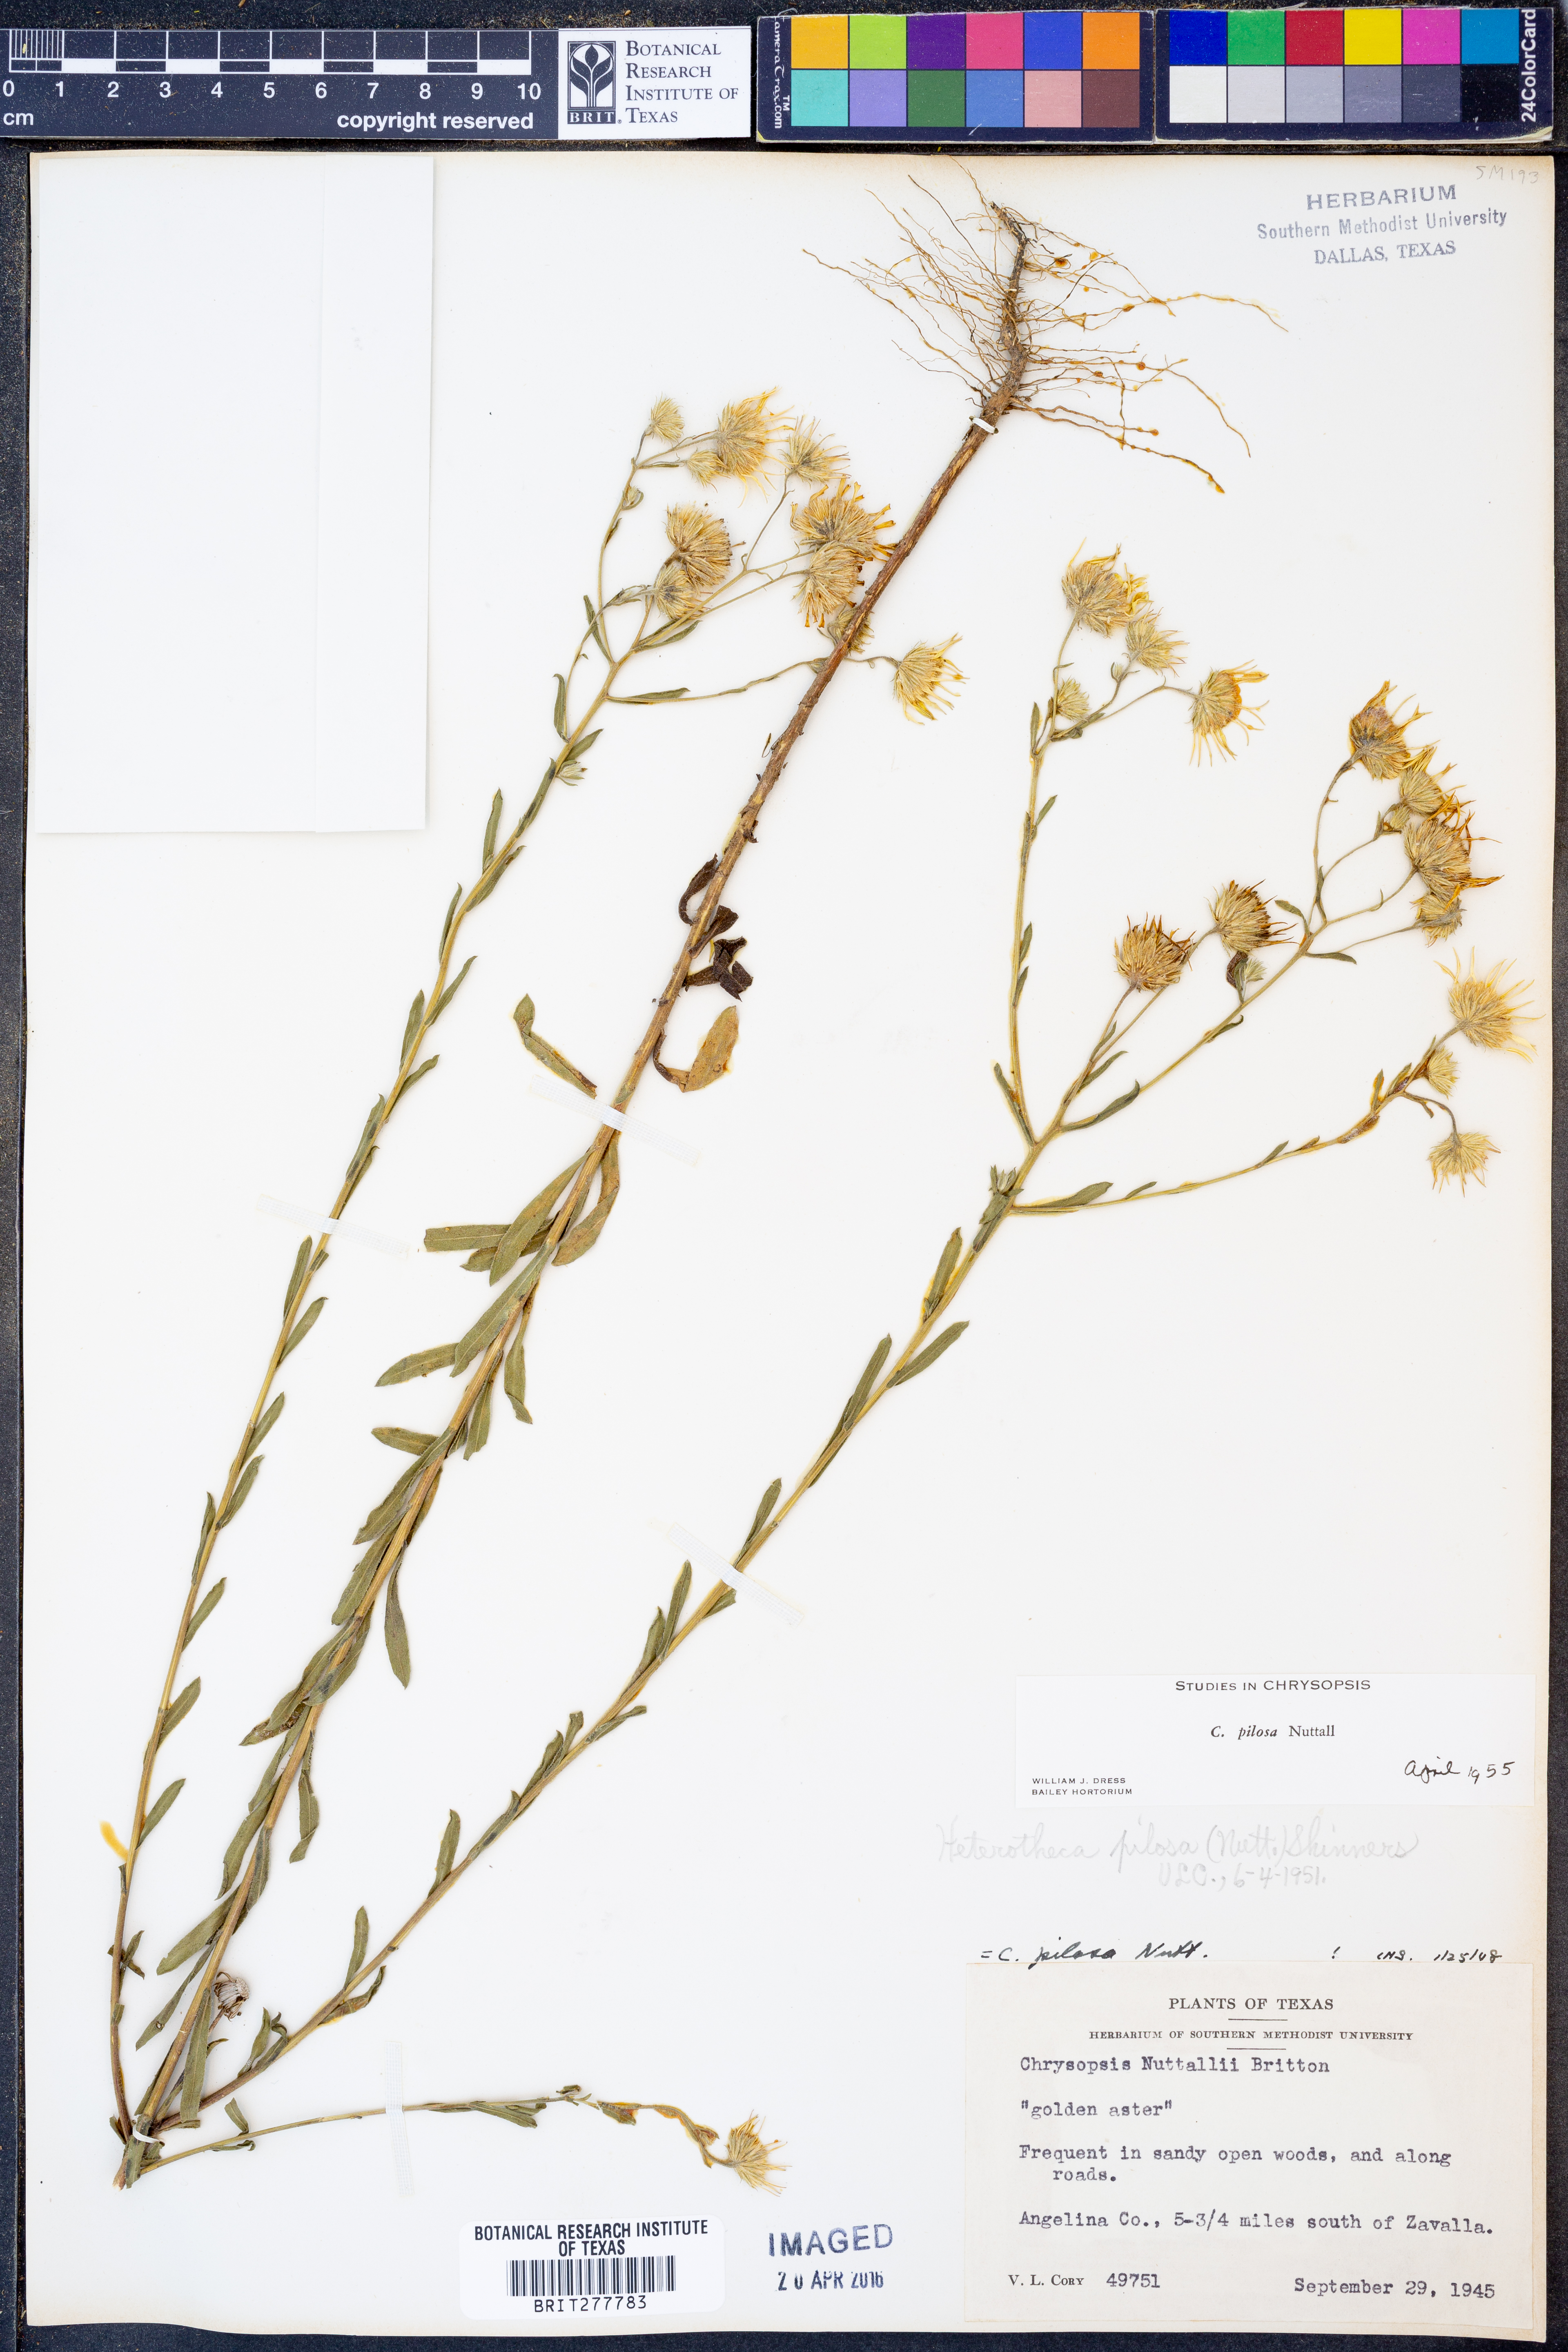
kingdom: Plantae
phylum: Tracheophyta
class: Magnoliopsida
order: Asterales
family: Asteraceae
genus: Bradburia
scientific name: Bradburia pilosa
